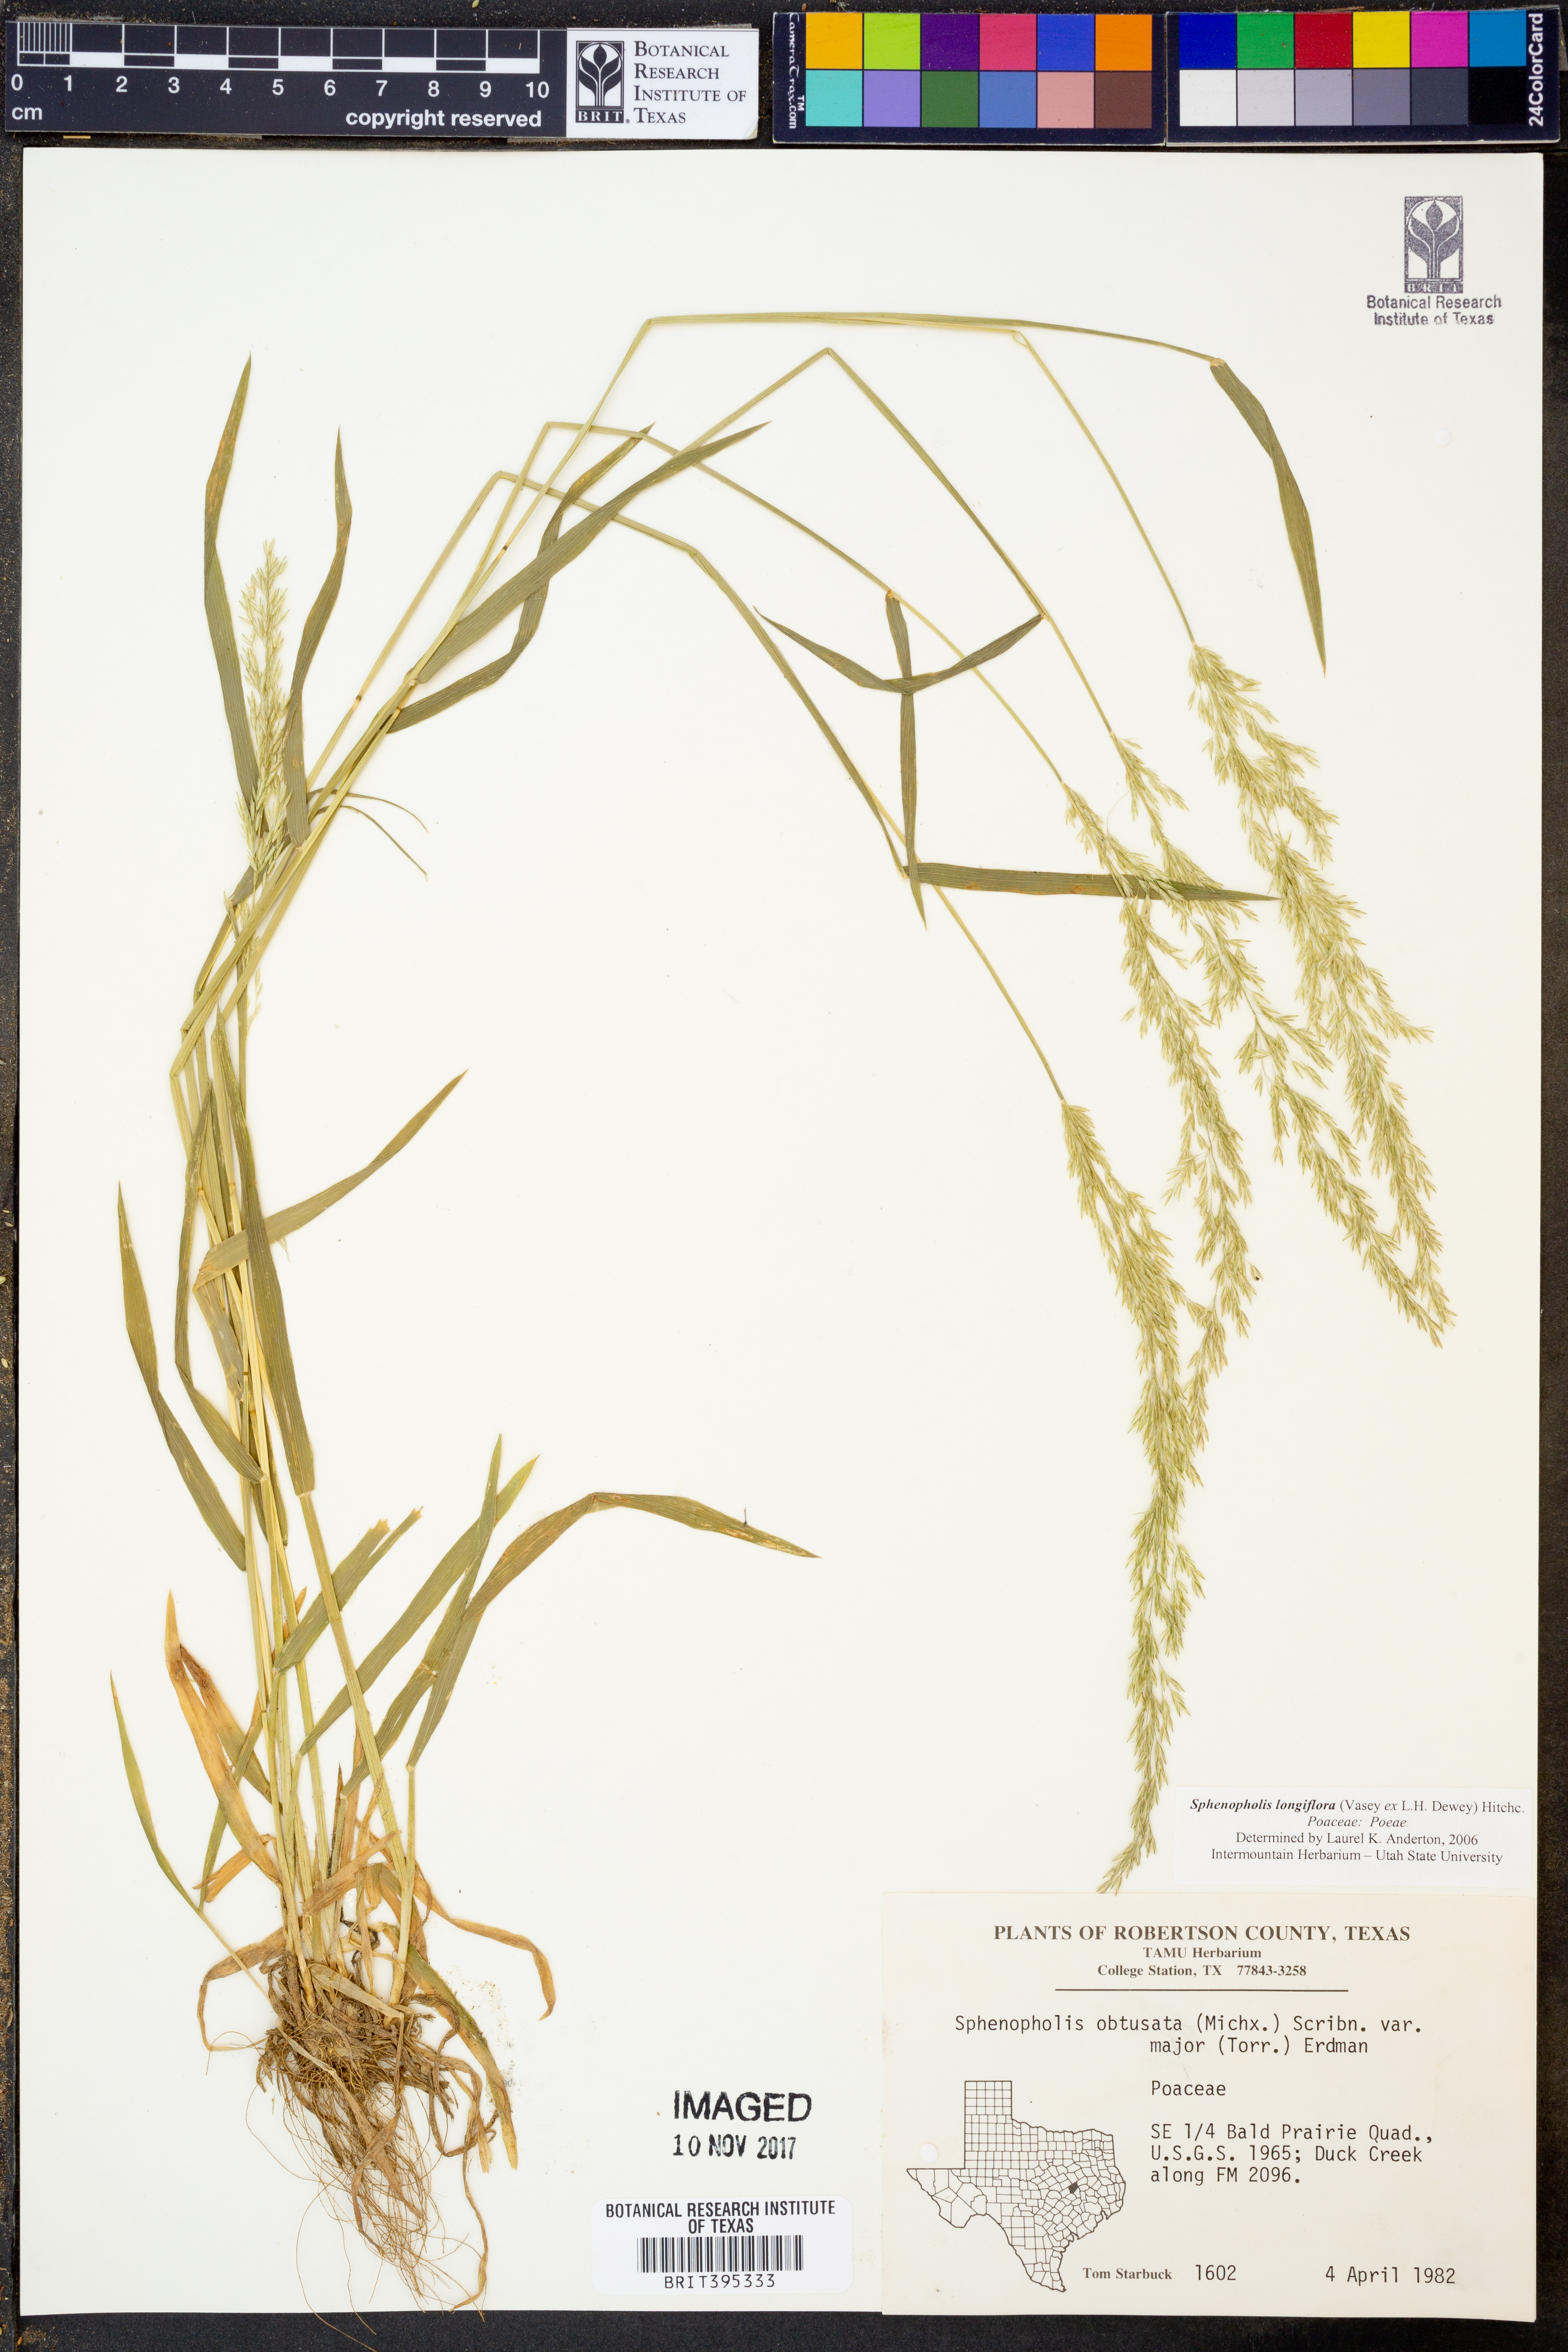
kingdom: Plantae
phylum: Tracheophyta
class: Liliopsida
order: Poales
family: Poaceae
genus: Sphenopholis
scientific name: Sphenopholis intermedia
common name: Intermediate eaton's grass
